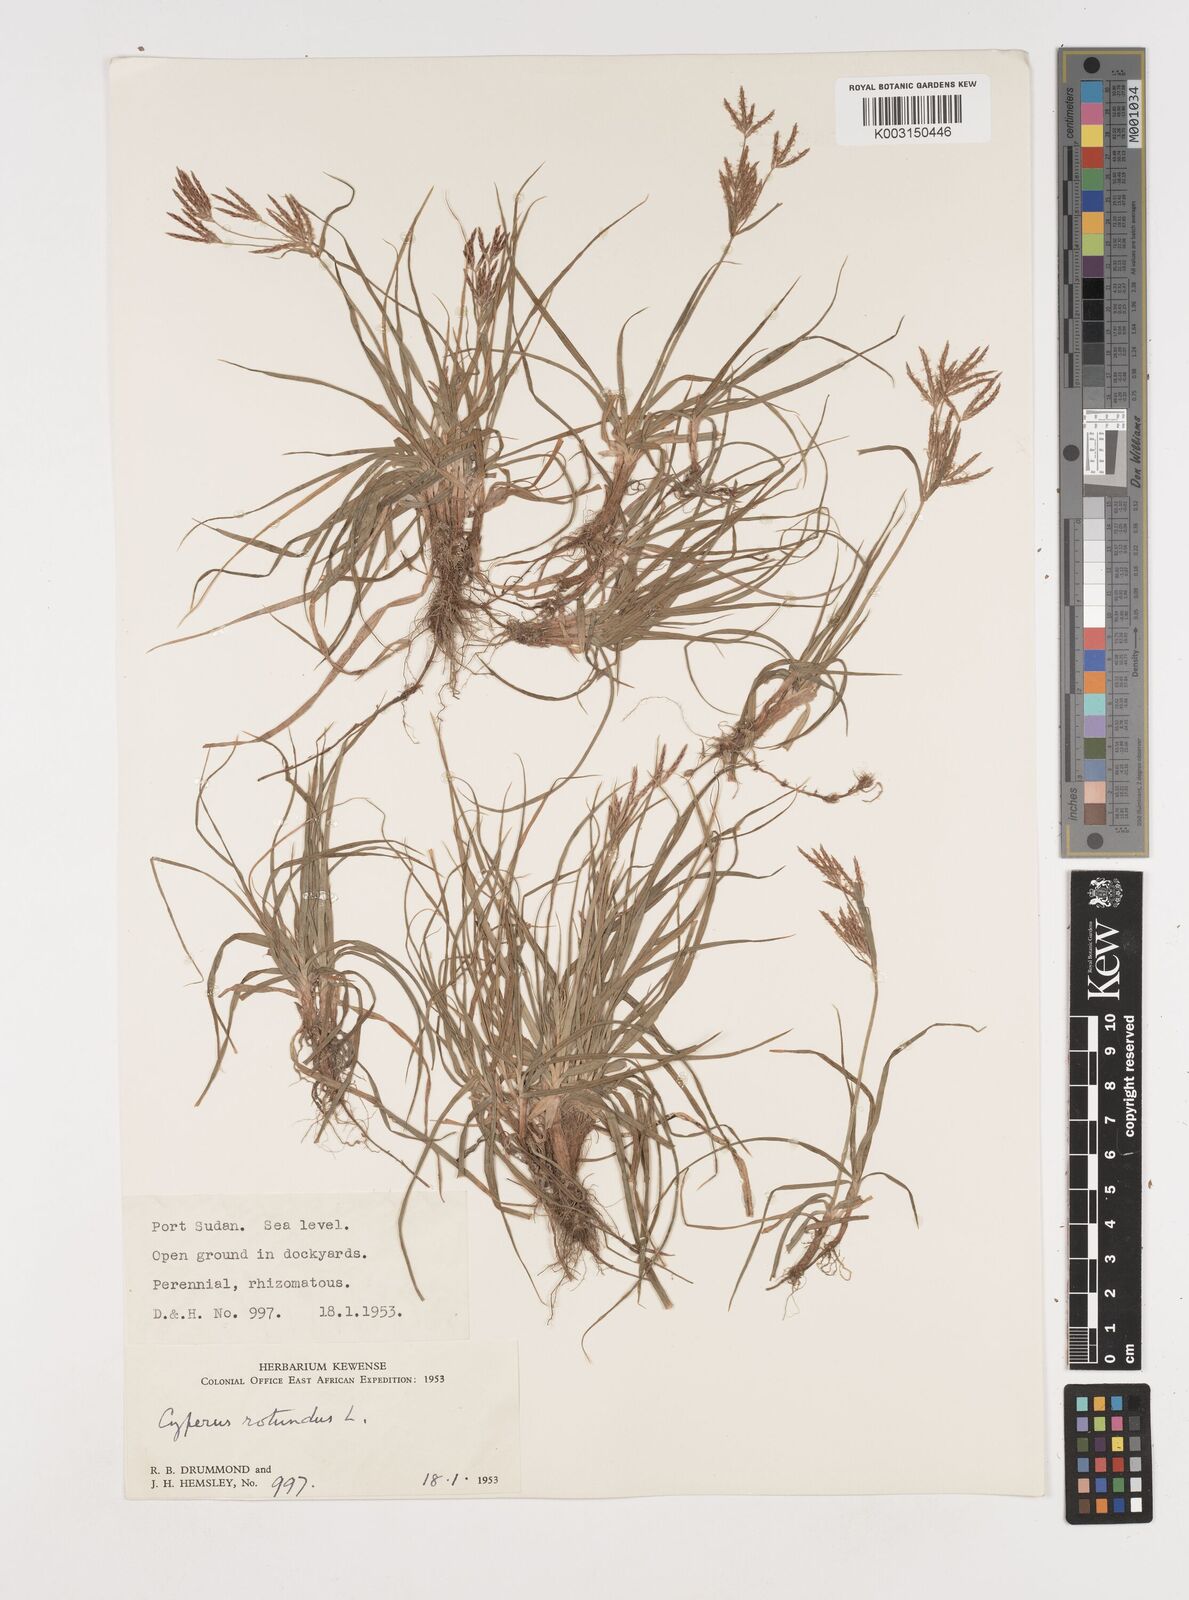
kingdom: Plantae
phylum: Tracheophyta
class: Liliopsida
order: Poales
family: Cyperaceae
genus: Cyperus
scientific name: Cyperus rotundus
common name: Nutgrass
